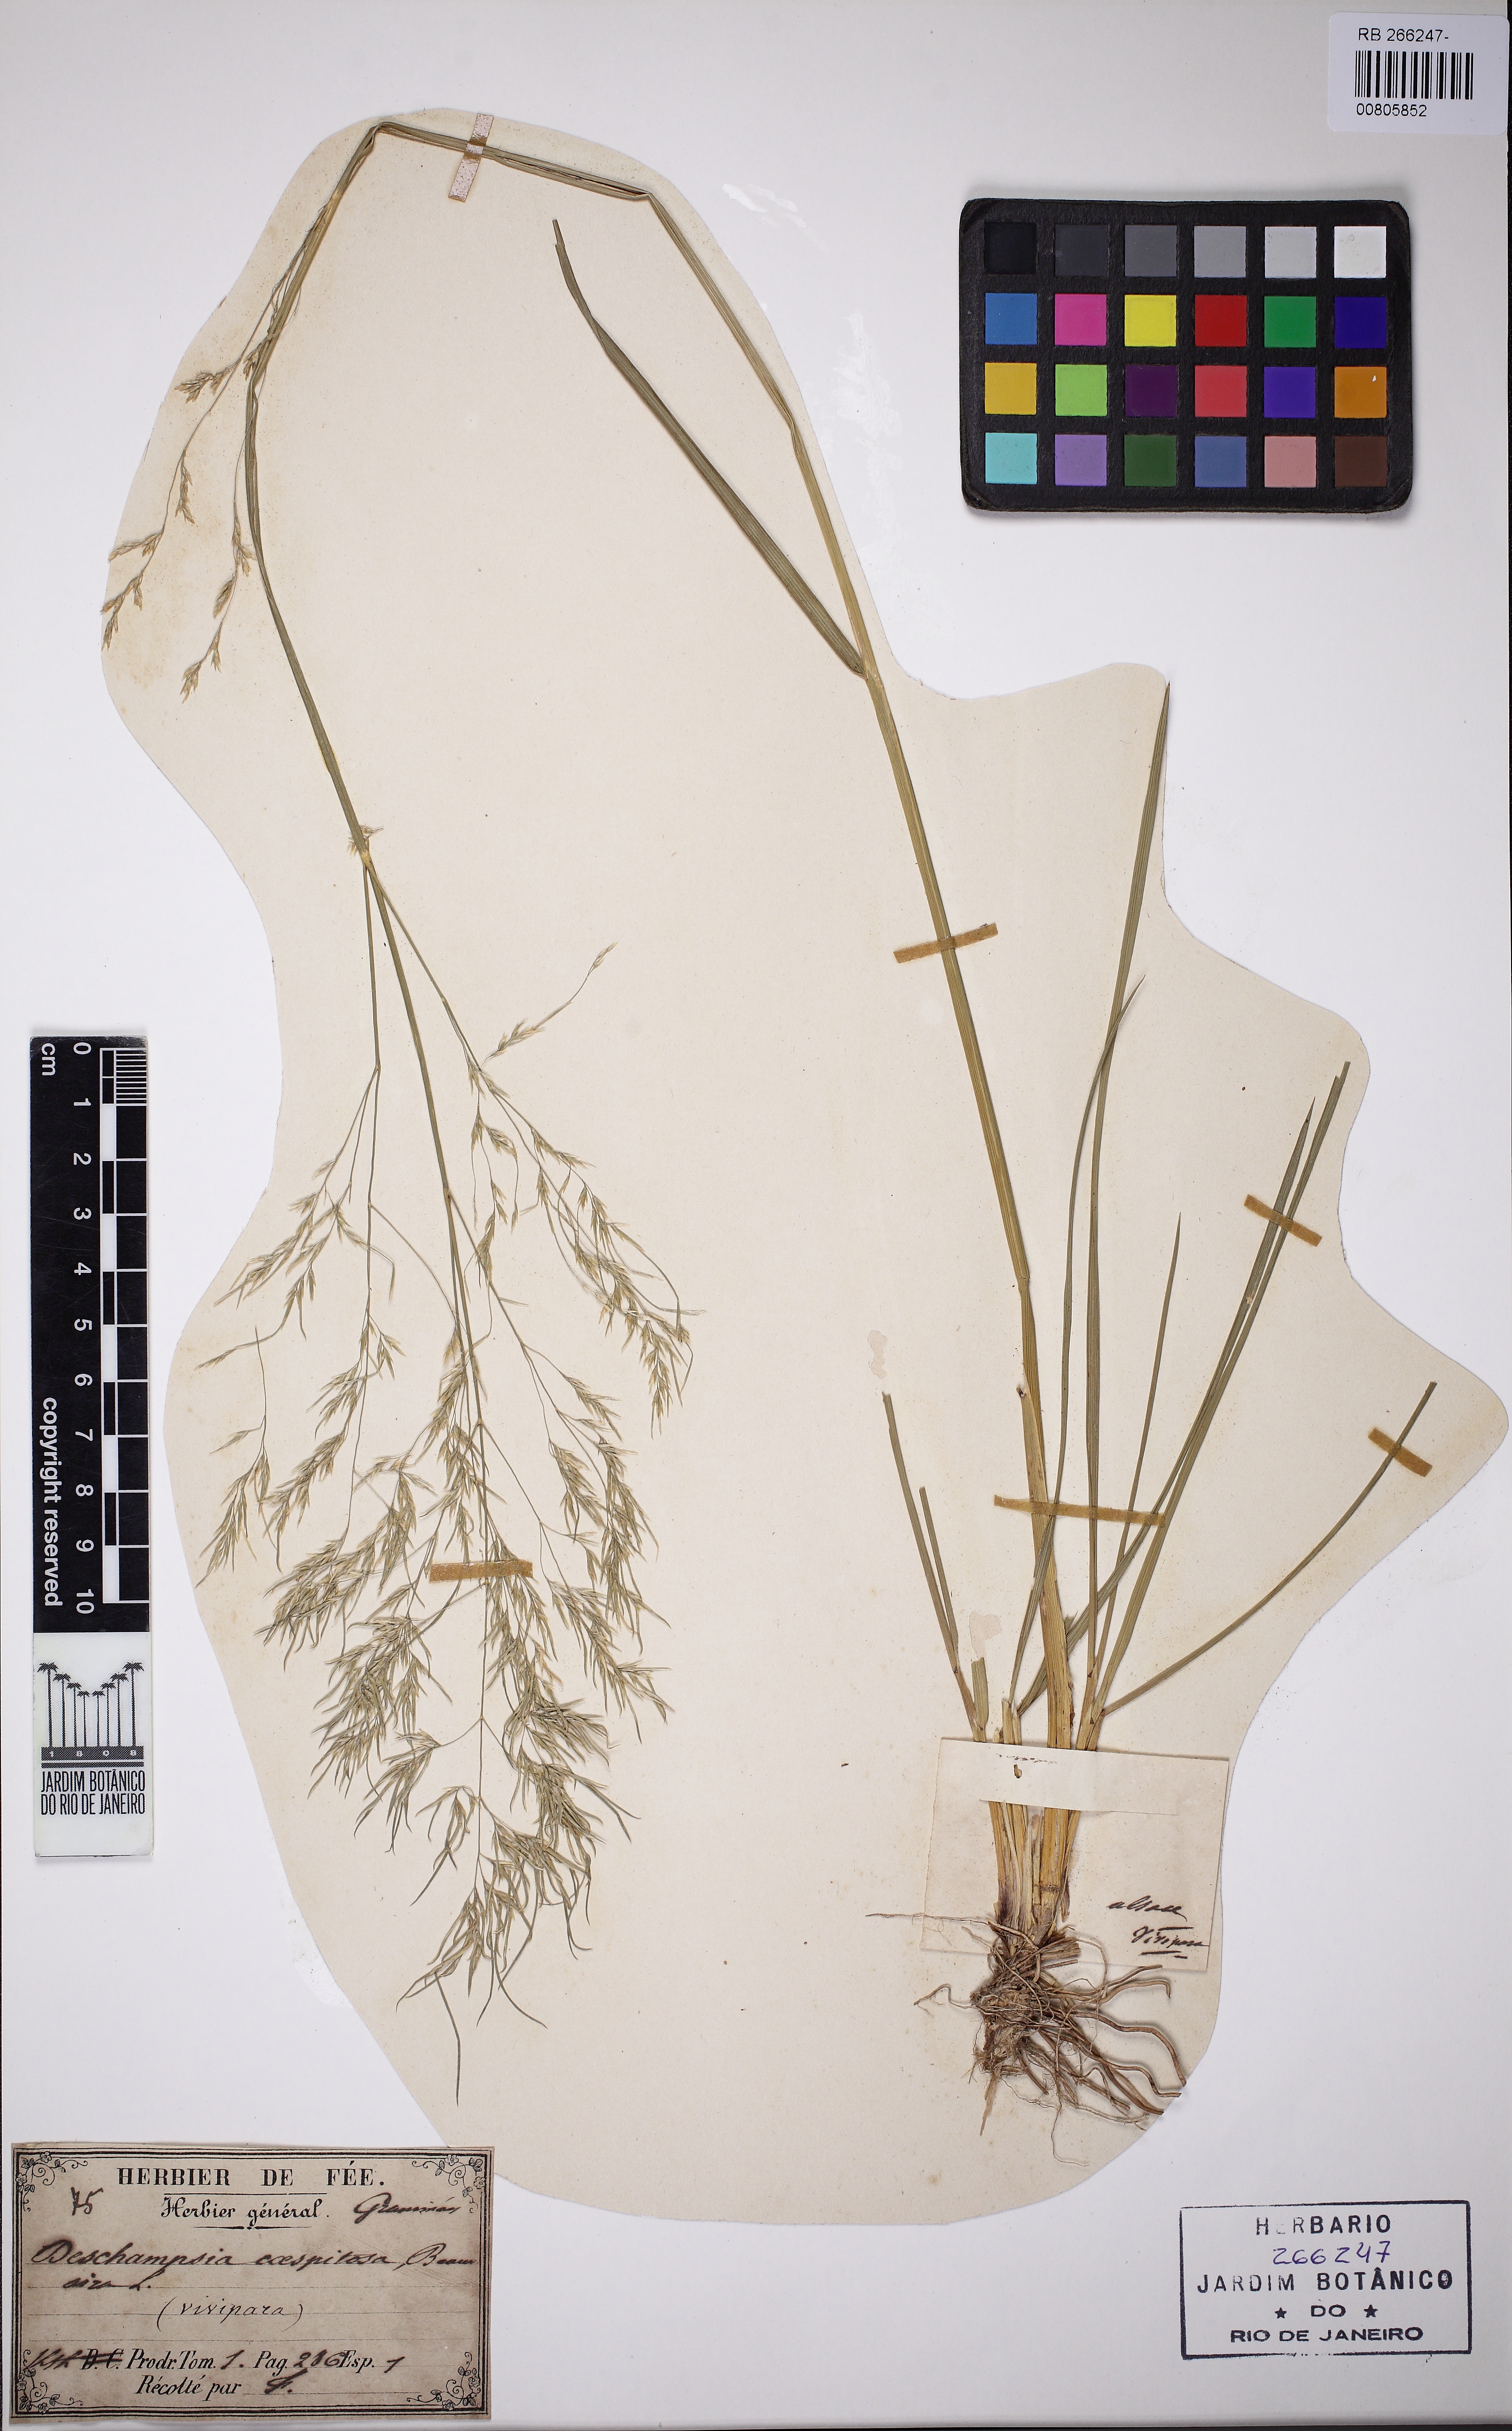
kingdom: Plantae
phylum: Tracheophyta
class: Liliopsida
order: Poales
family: Poaceae
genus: Deschampsia
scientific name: Deschampsia cespitosa
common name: Tufted hair-grass
